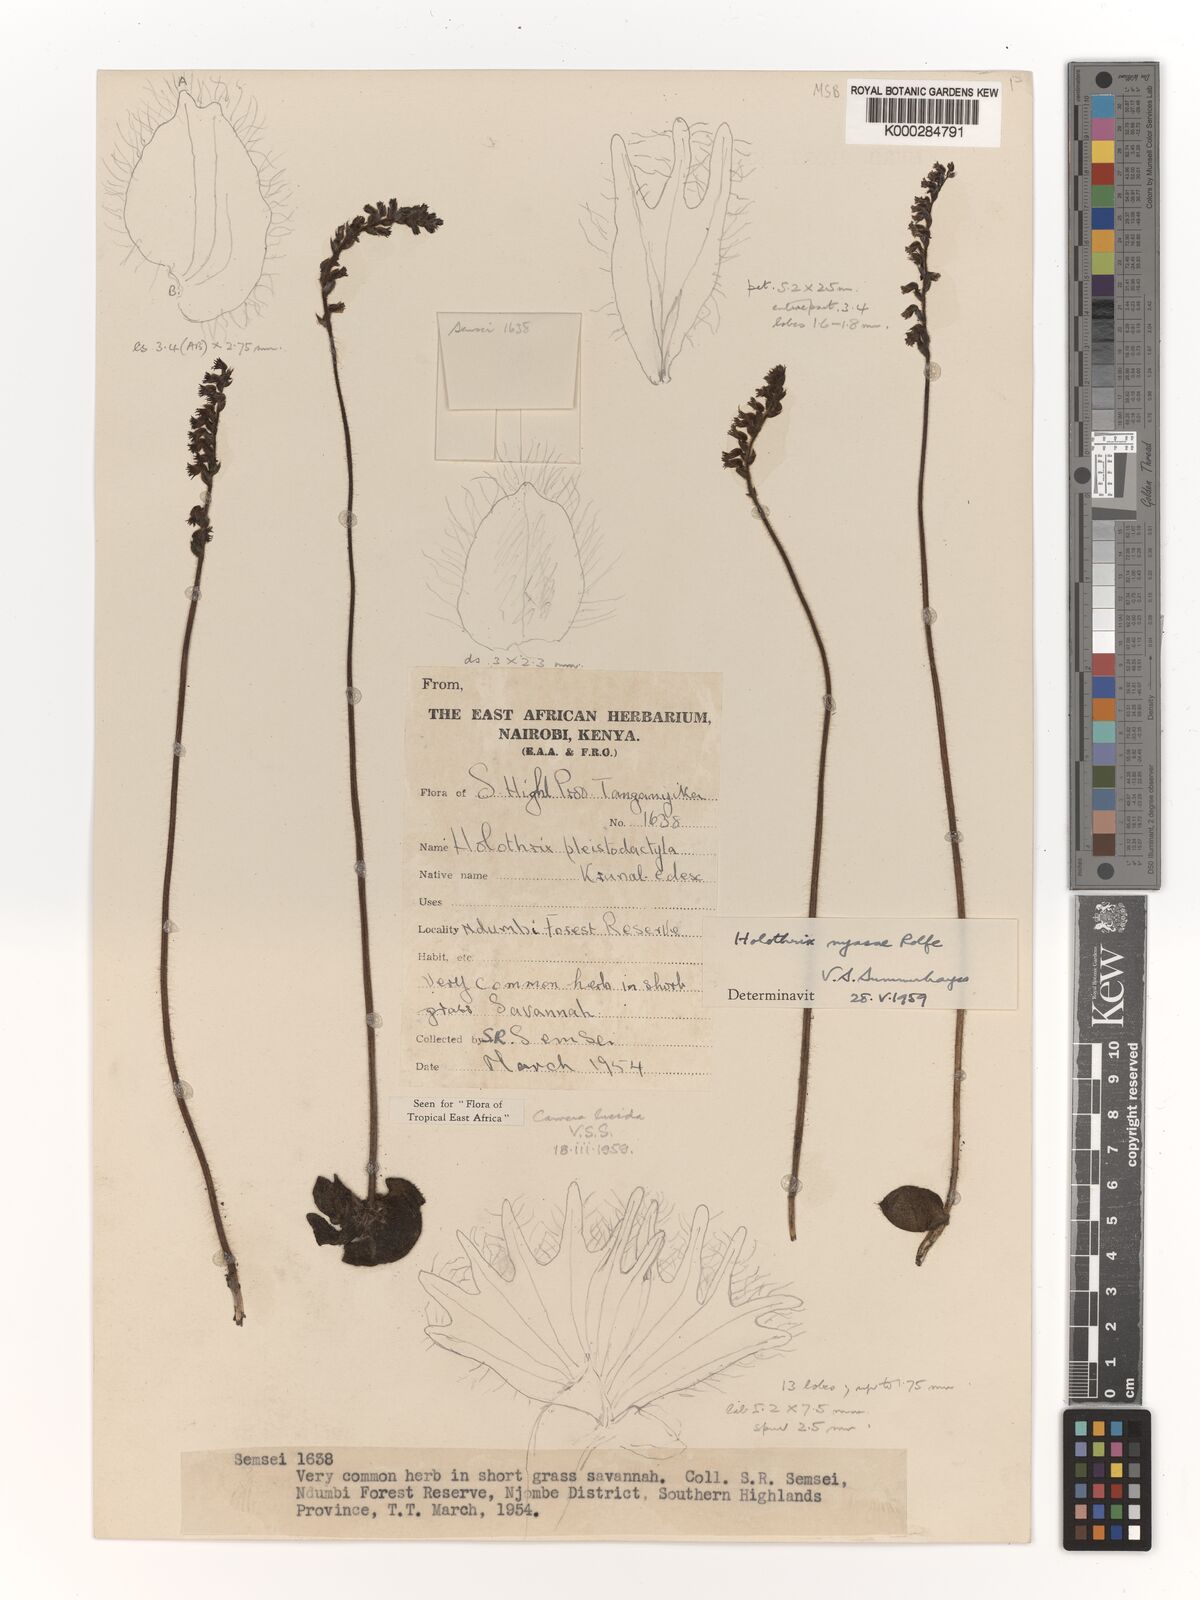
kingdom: Plantae
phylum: Tracheophyta
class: Liliopsida
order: Asparagales
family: Orchidaceae
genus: Holothrix
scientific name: Holothrix nyasae
